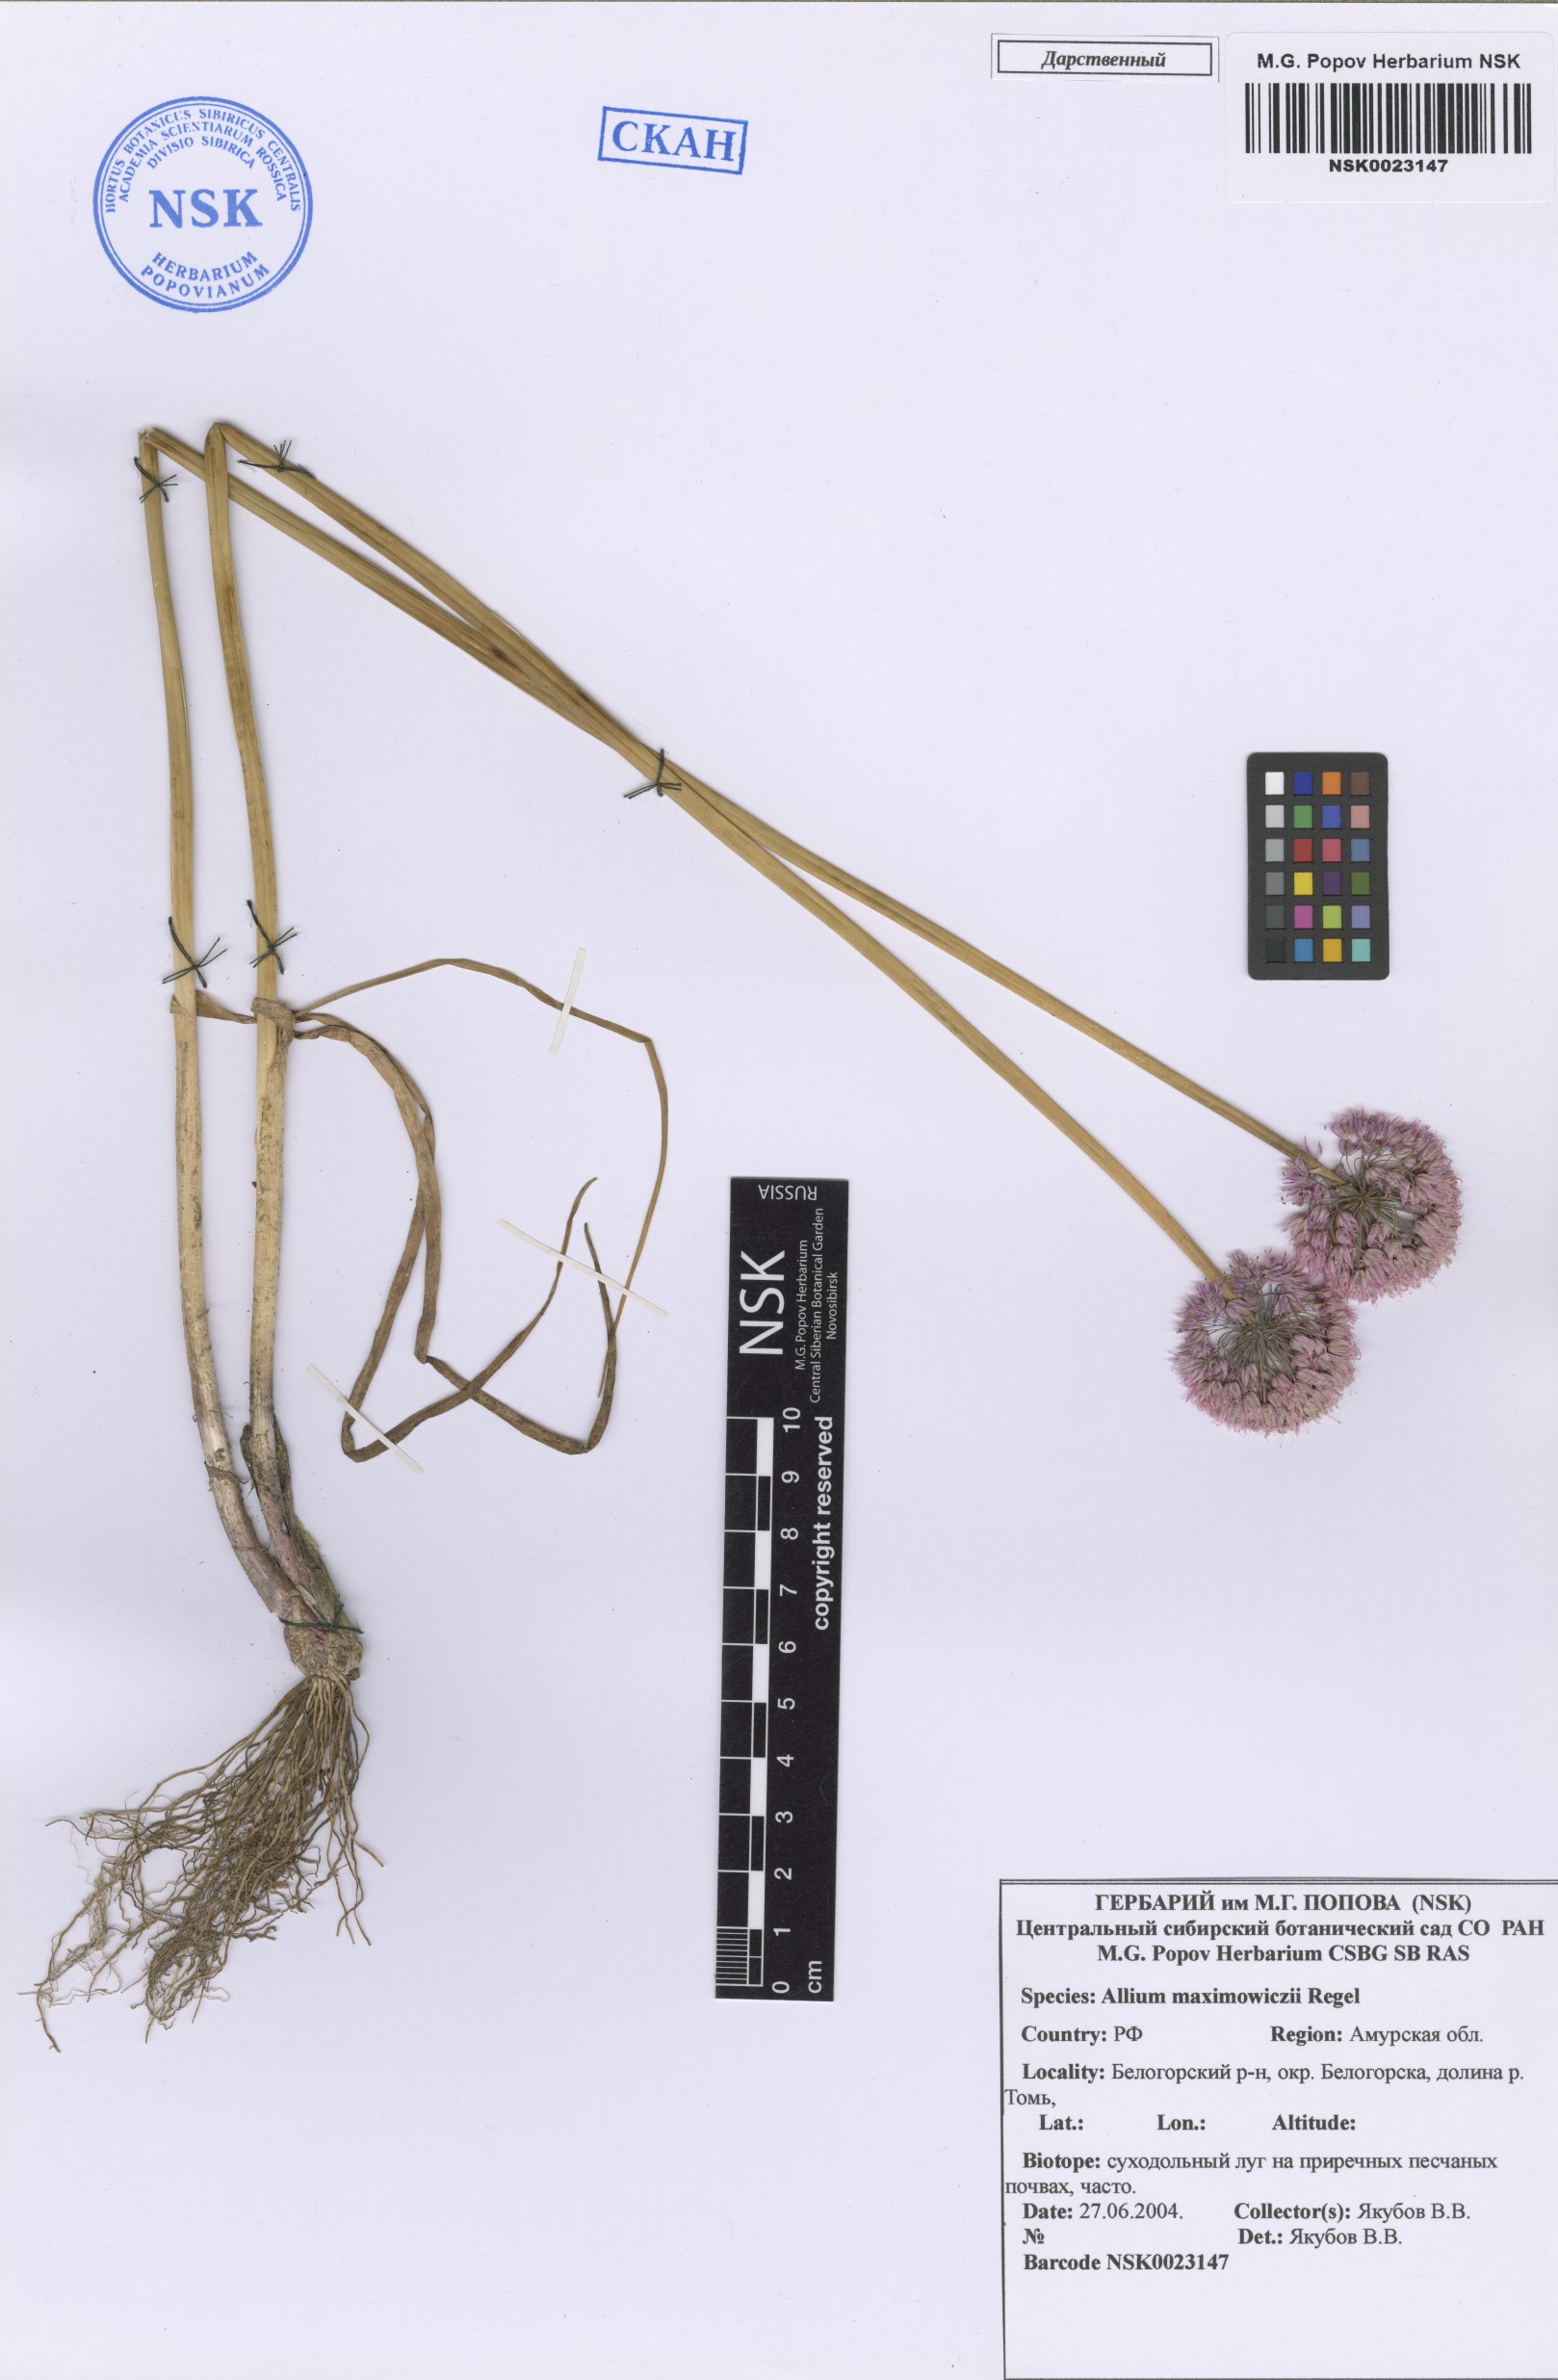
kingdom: Plantae
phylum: Tracheophyta
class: Liliopsida
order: Asparagales
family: Amaryllidaceae
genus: Allium
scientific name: Allium maximowiczii
